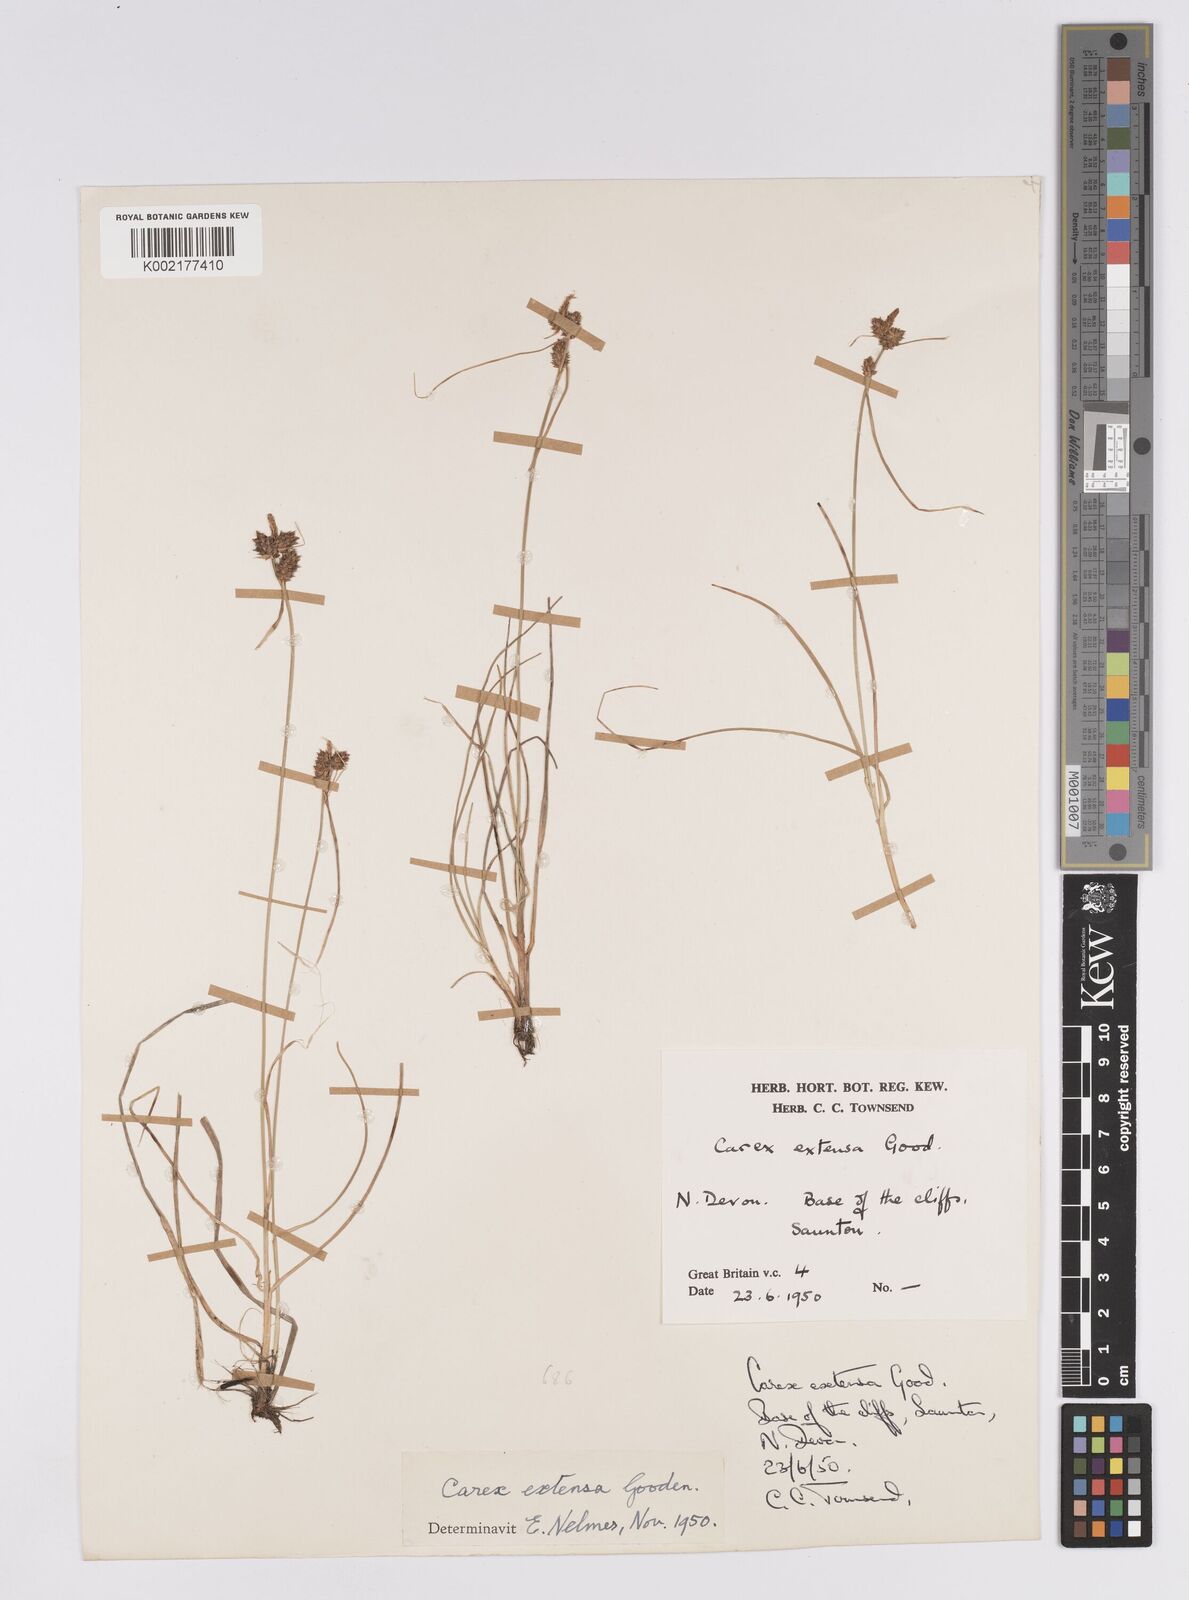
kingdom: Plantae
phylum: Tracheophyta
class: Liliopsida
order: Poales
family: Cyperaceae
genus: Carex
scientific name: Carex extensa
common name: Long-bracted sedge
